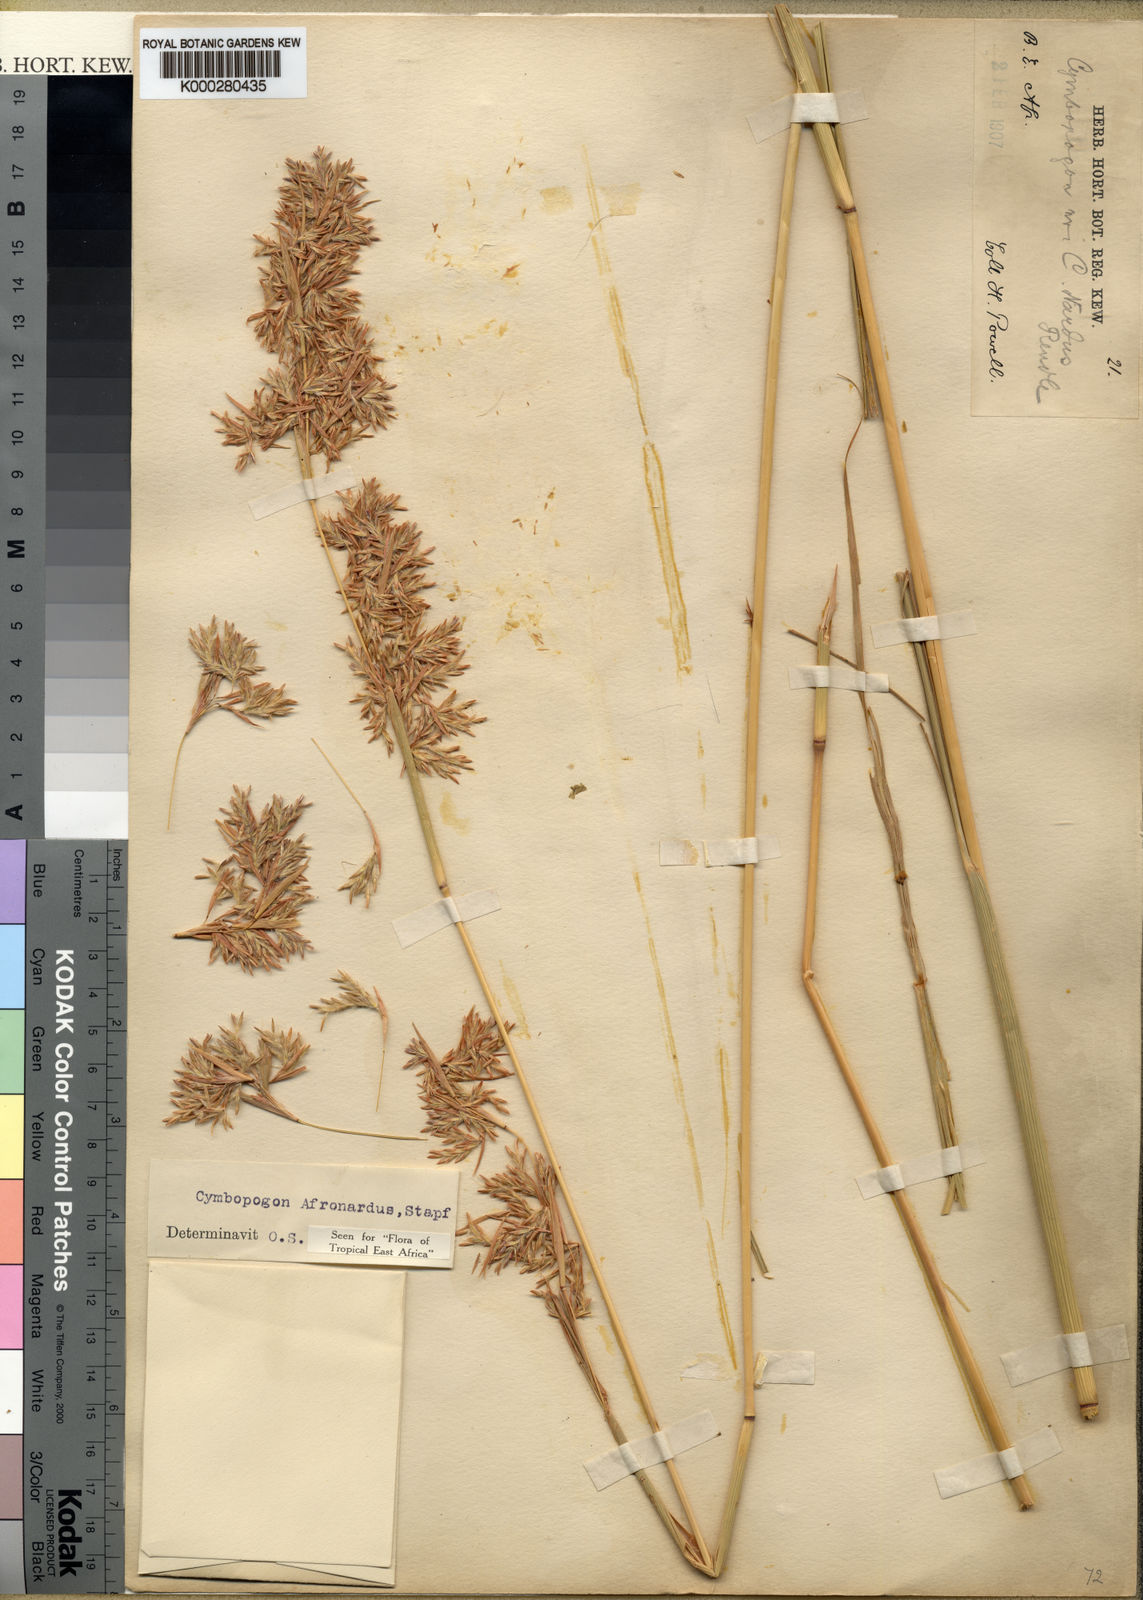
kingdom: Plantae
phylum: Tracheophyta
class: Liliopsida
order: Poales
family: Poaceae
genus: Cymbopogon
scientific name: Cymbopogon nardus
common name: Giant turpentine grass
